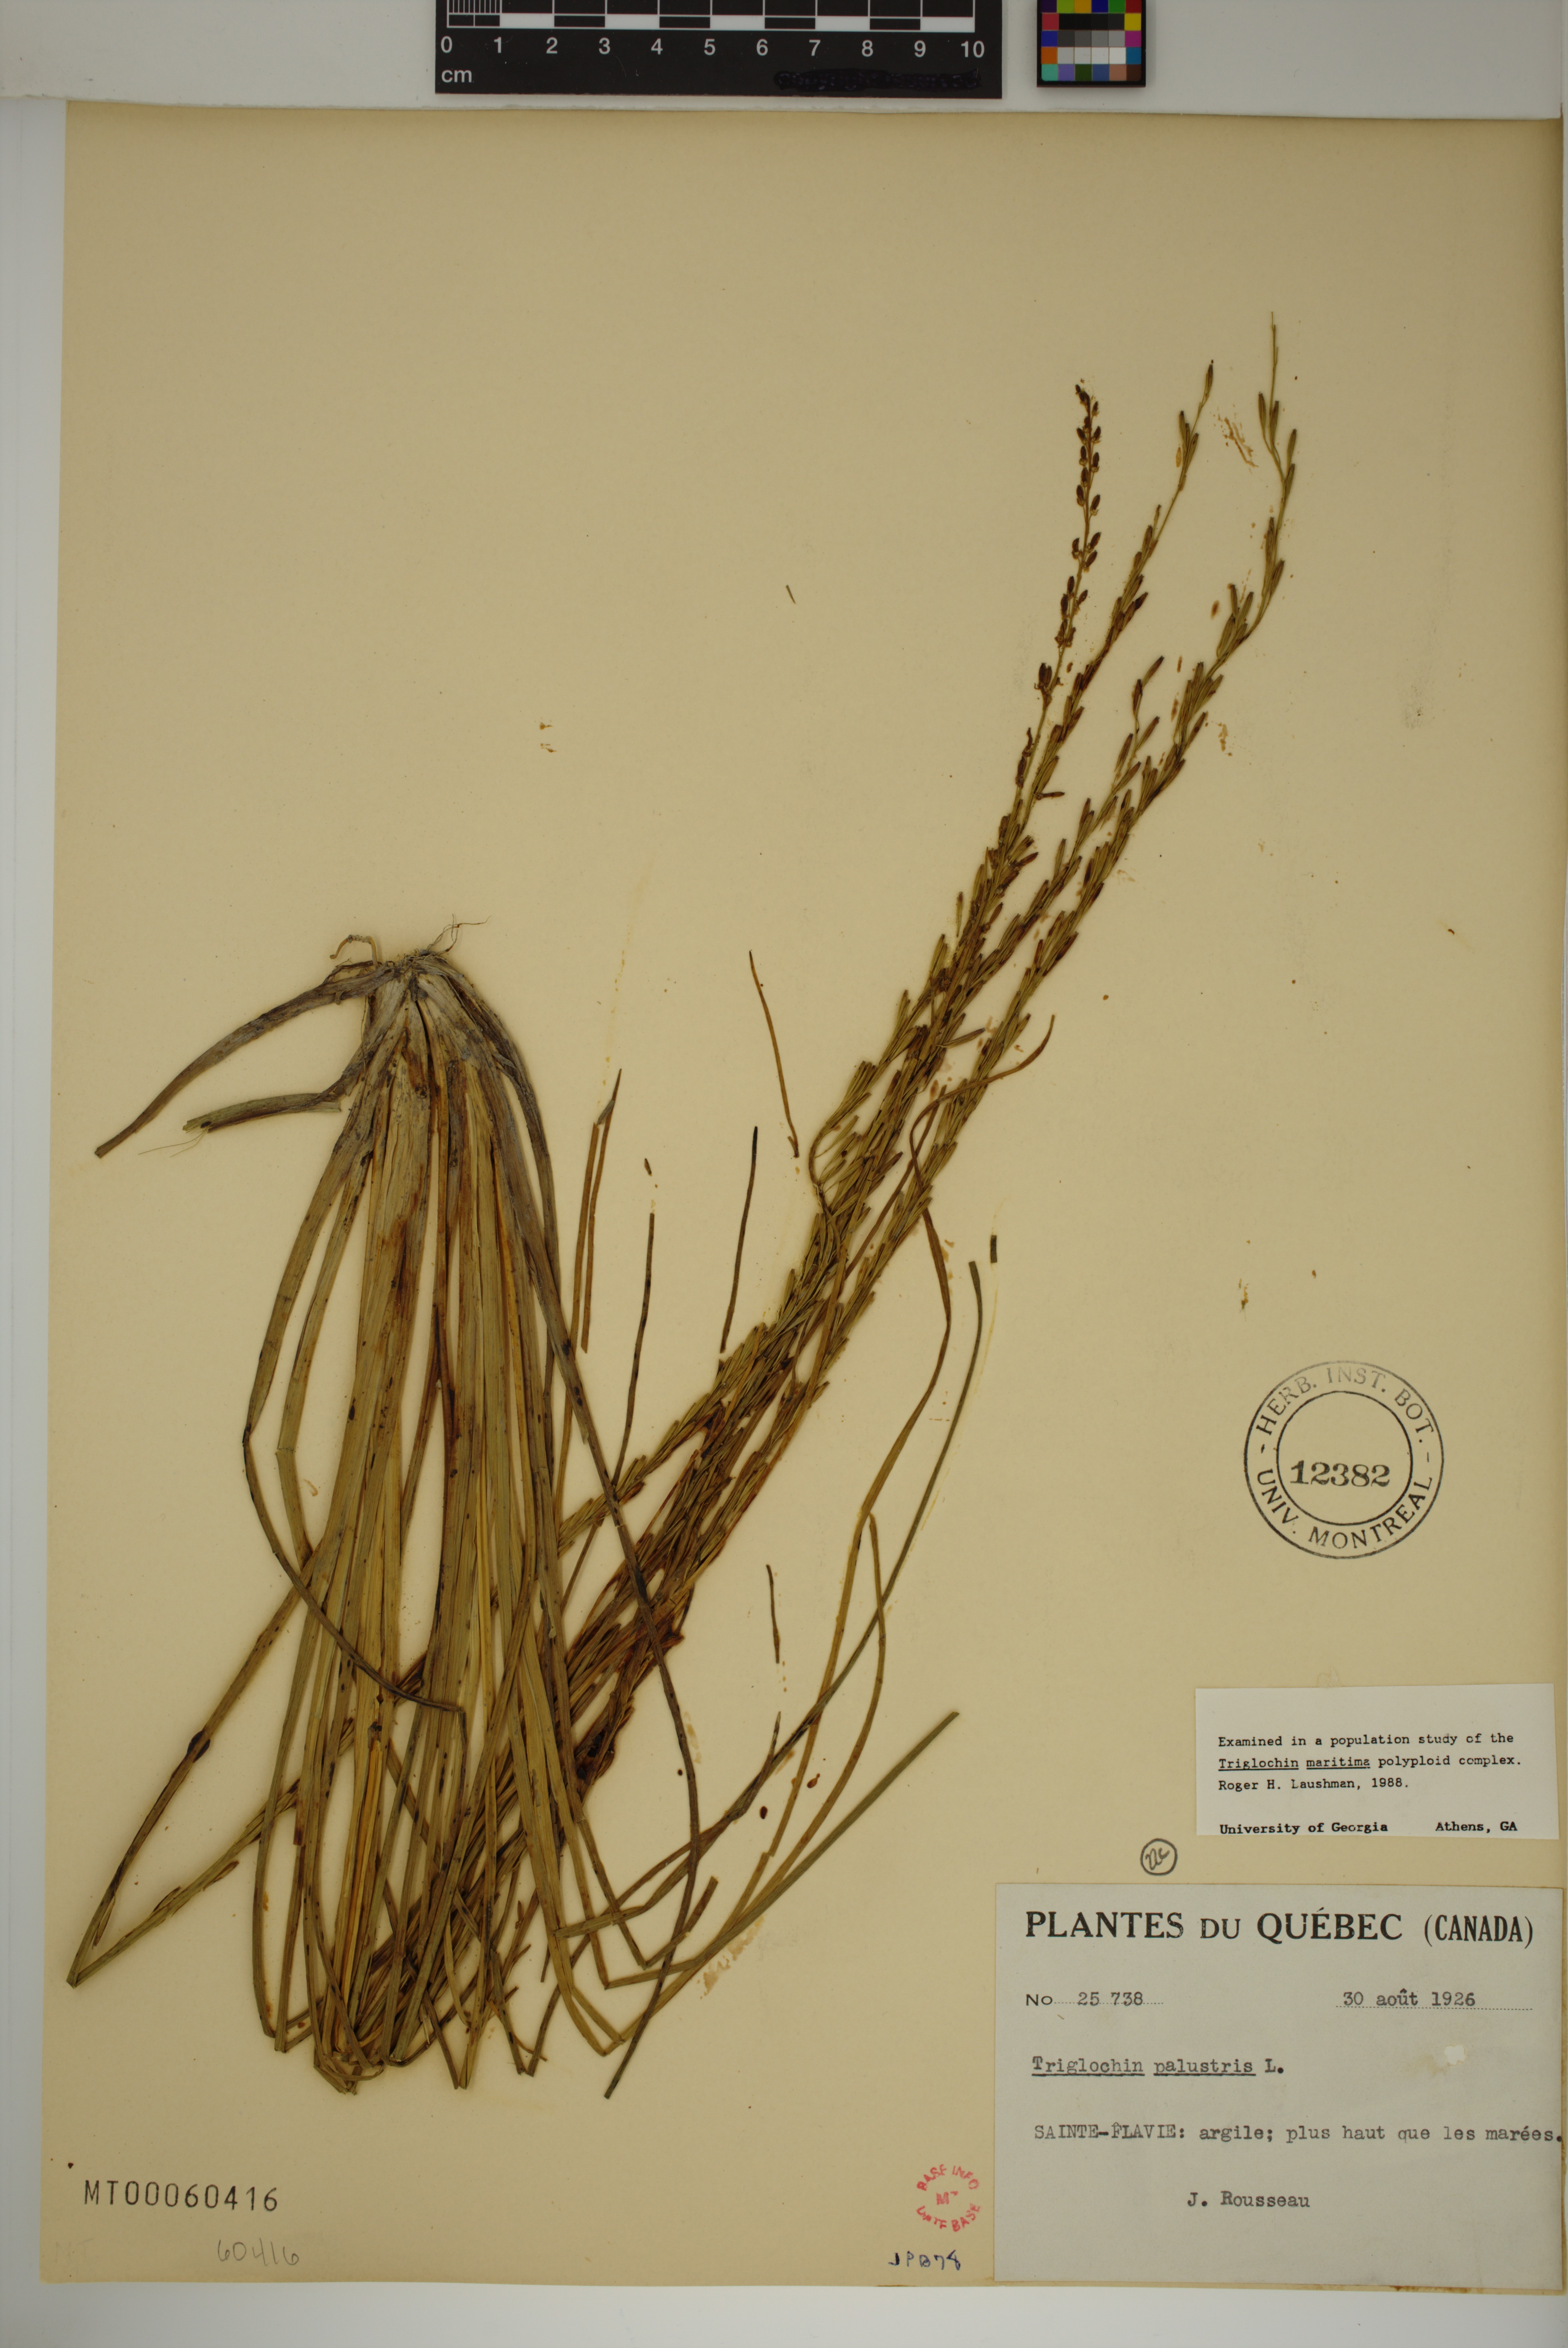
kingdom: Plantae
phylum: Tracheophyta
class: Liliopsida
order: Alismatales
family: Juncaginaceae
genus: Triglochin
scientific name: Triglochin palustris
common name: Marsh arrowgrass
